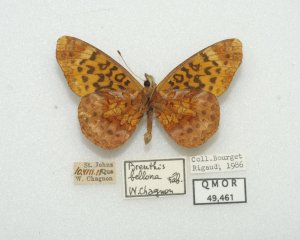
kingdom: Animalia
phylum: Arthropoda
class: Insecta
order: Lepidoptera
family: Nymphalidae
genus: Clossiana
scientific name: Clossiana toddi
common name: Meadow Fritillary
